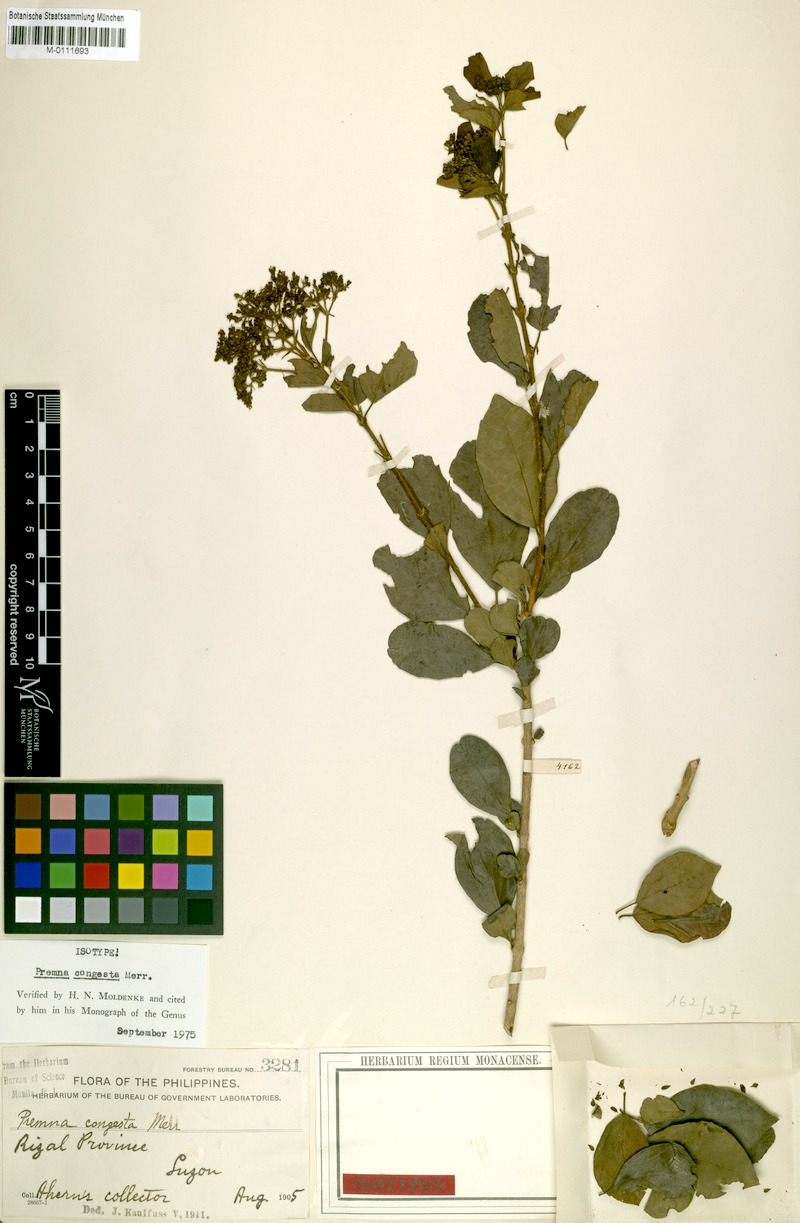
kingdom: Plantae
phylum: Tracheophyta
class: Magnoliopsida
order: Lamiales
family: Lamiaceae
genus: Premna
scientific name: Premna serratifolia
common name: Bastard guelder
